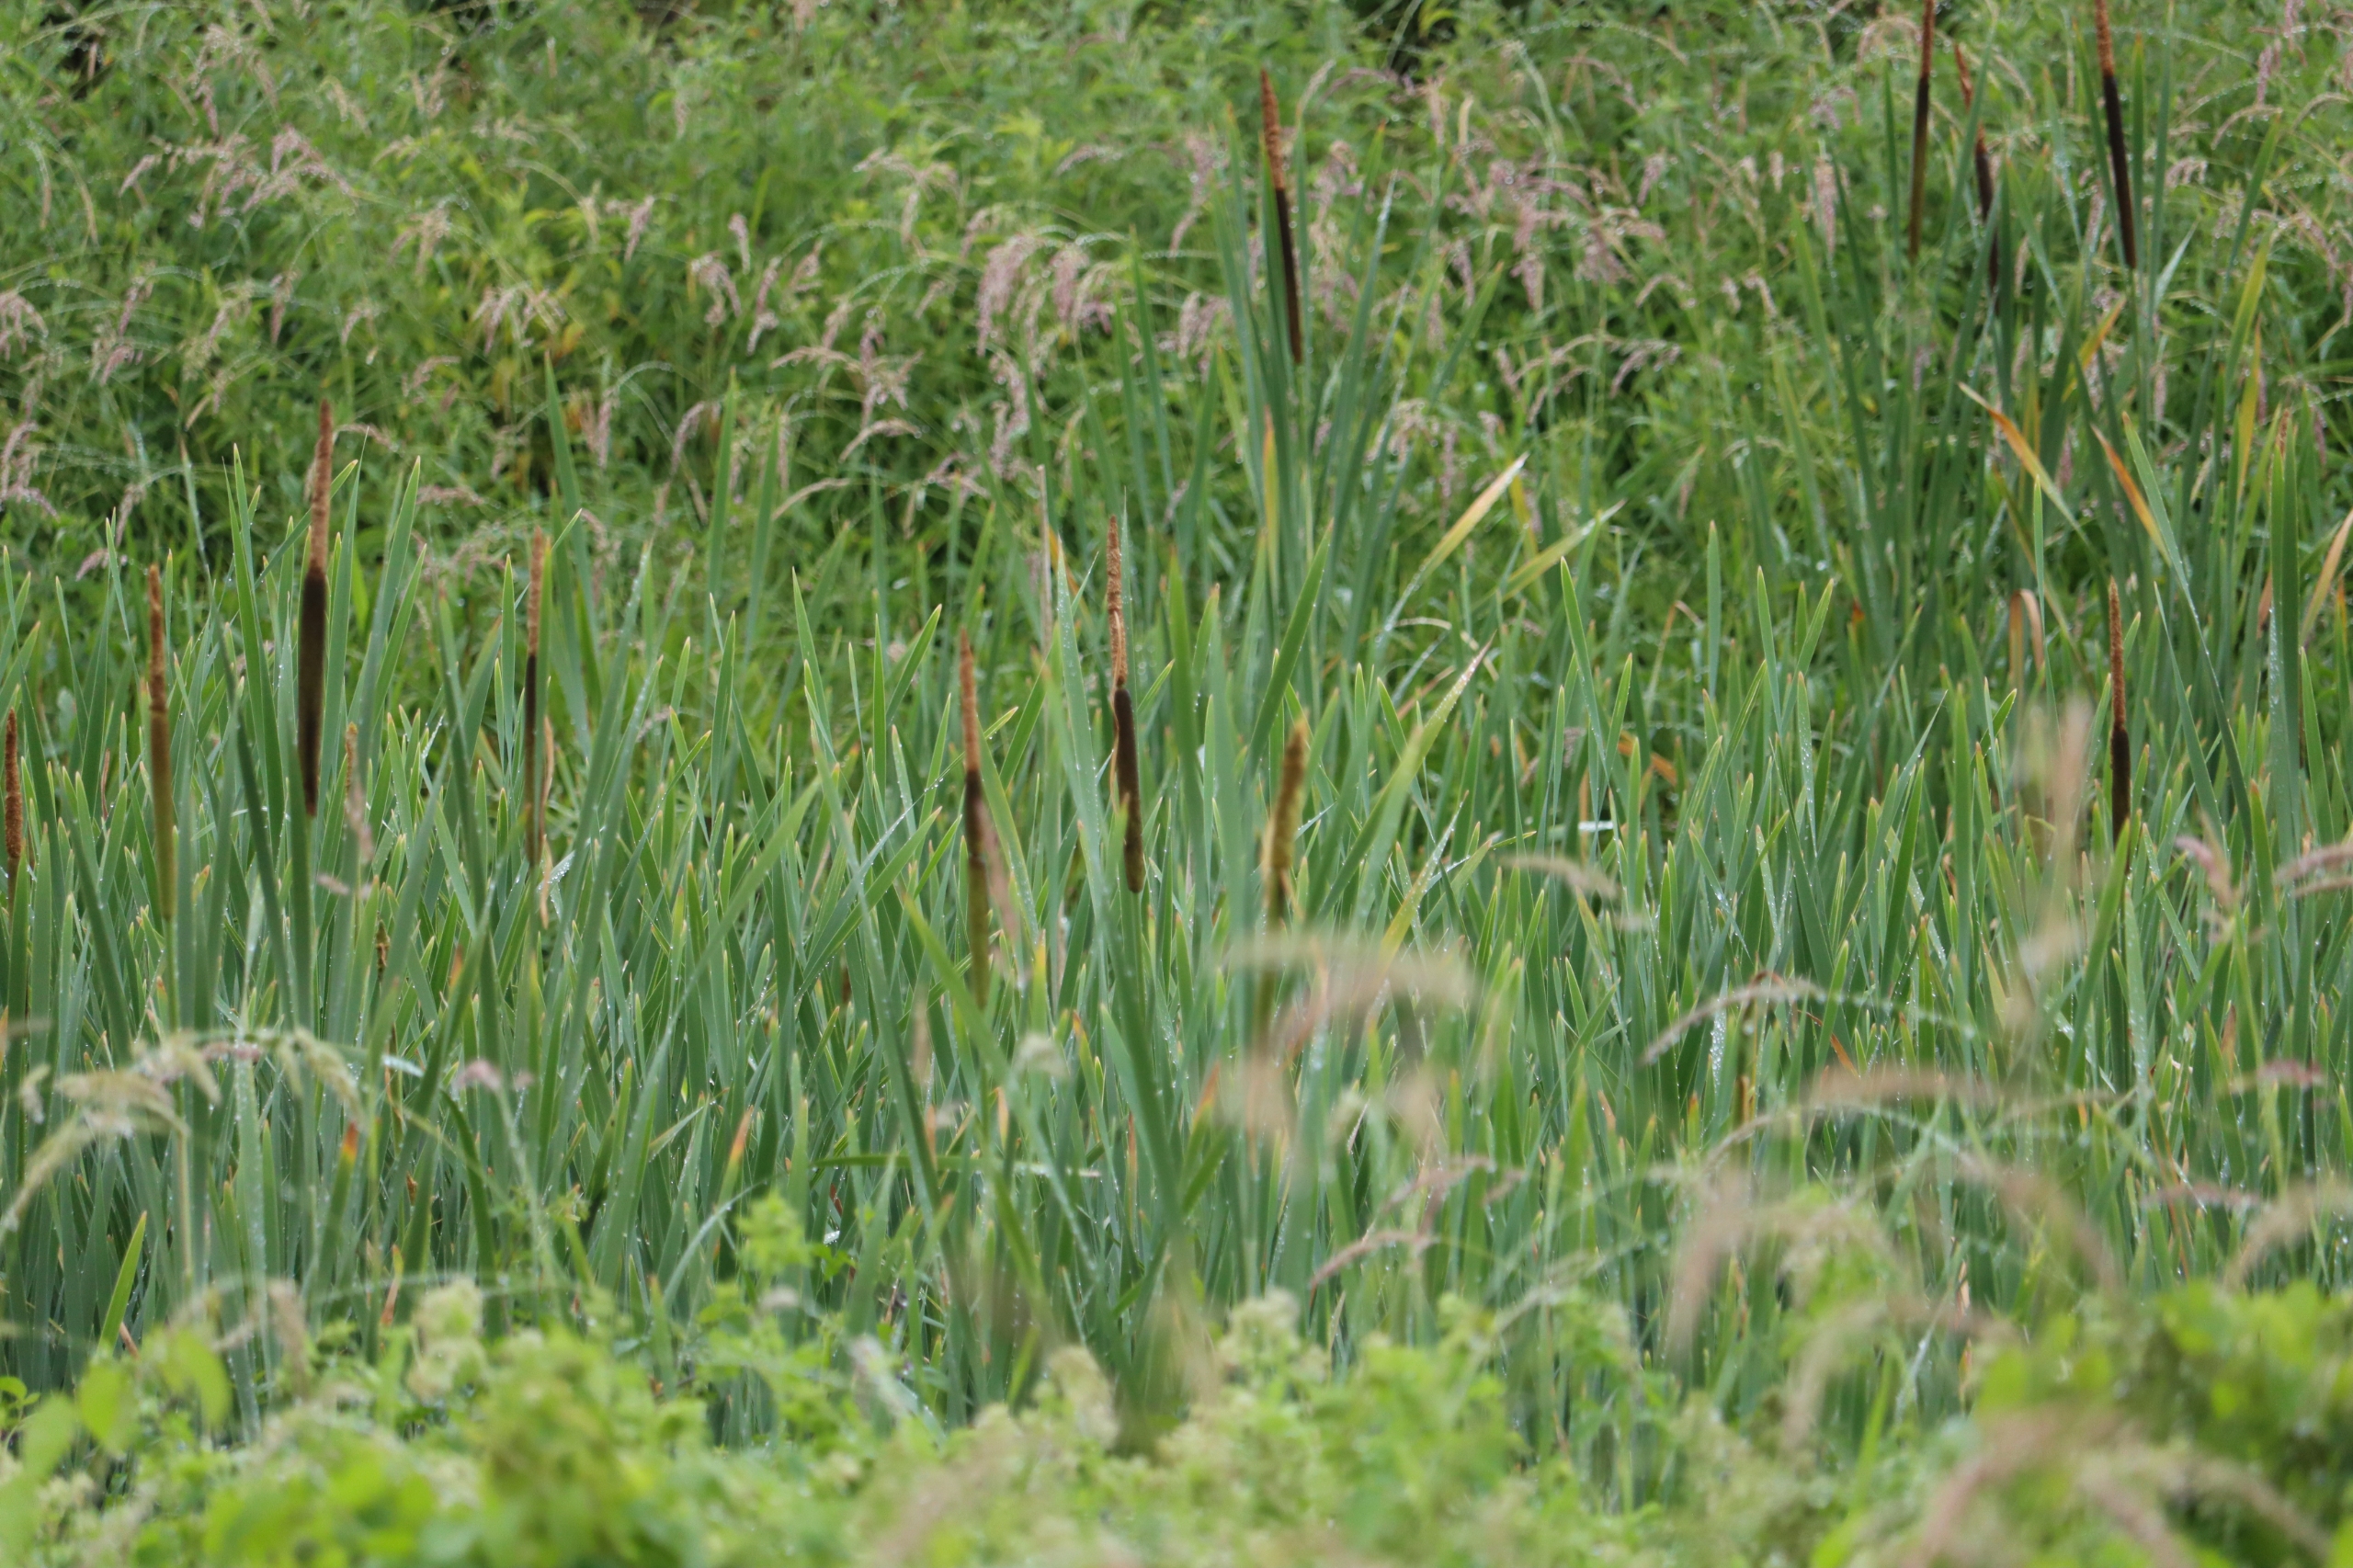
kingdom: Plantae
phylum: Tracheophyta
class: Liliopsida
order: Poales
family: Typhaceae
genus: Typha
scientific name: Typha latifolia
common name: Bredbladet dunhammer
